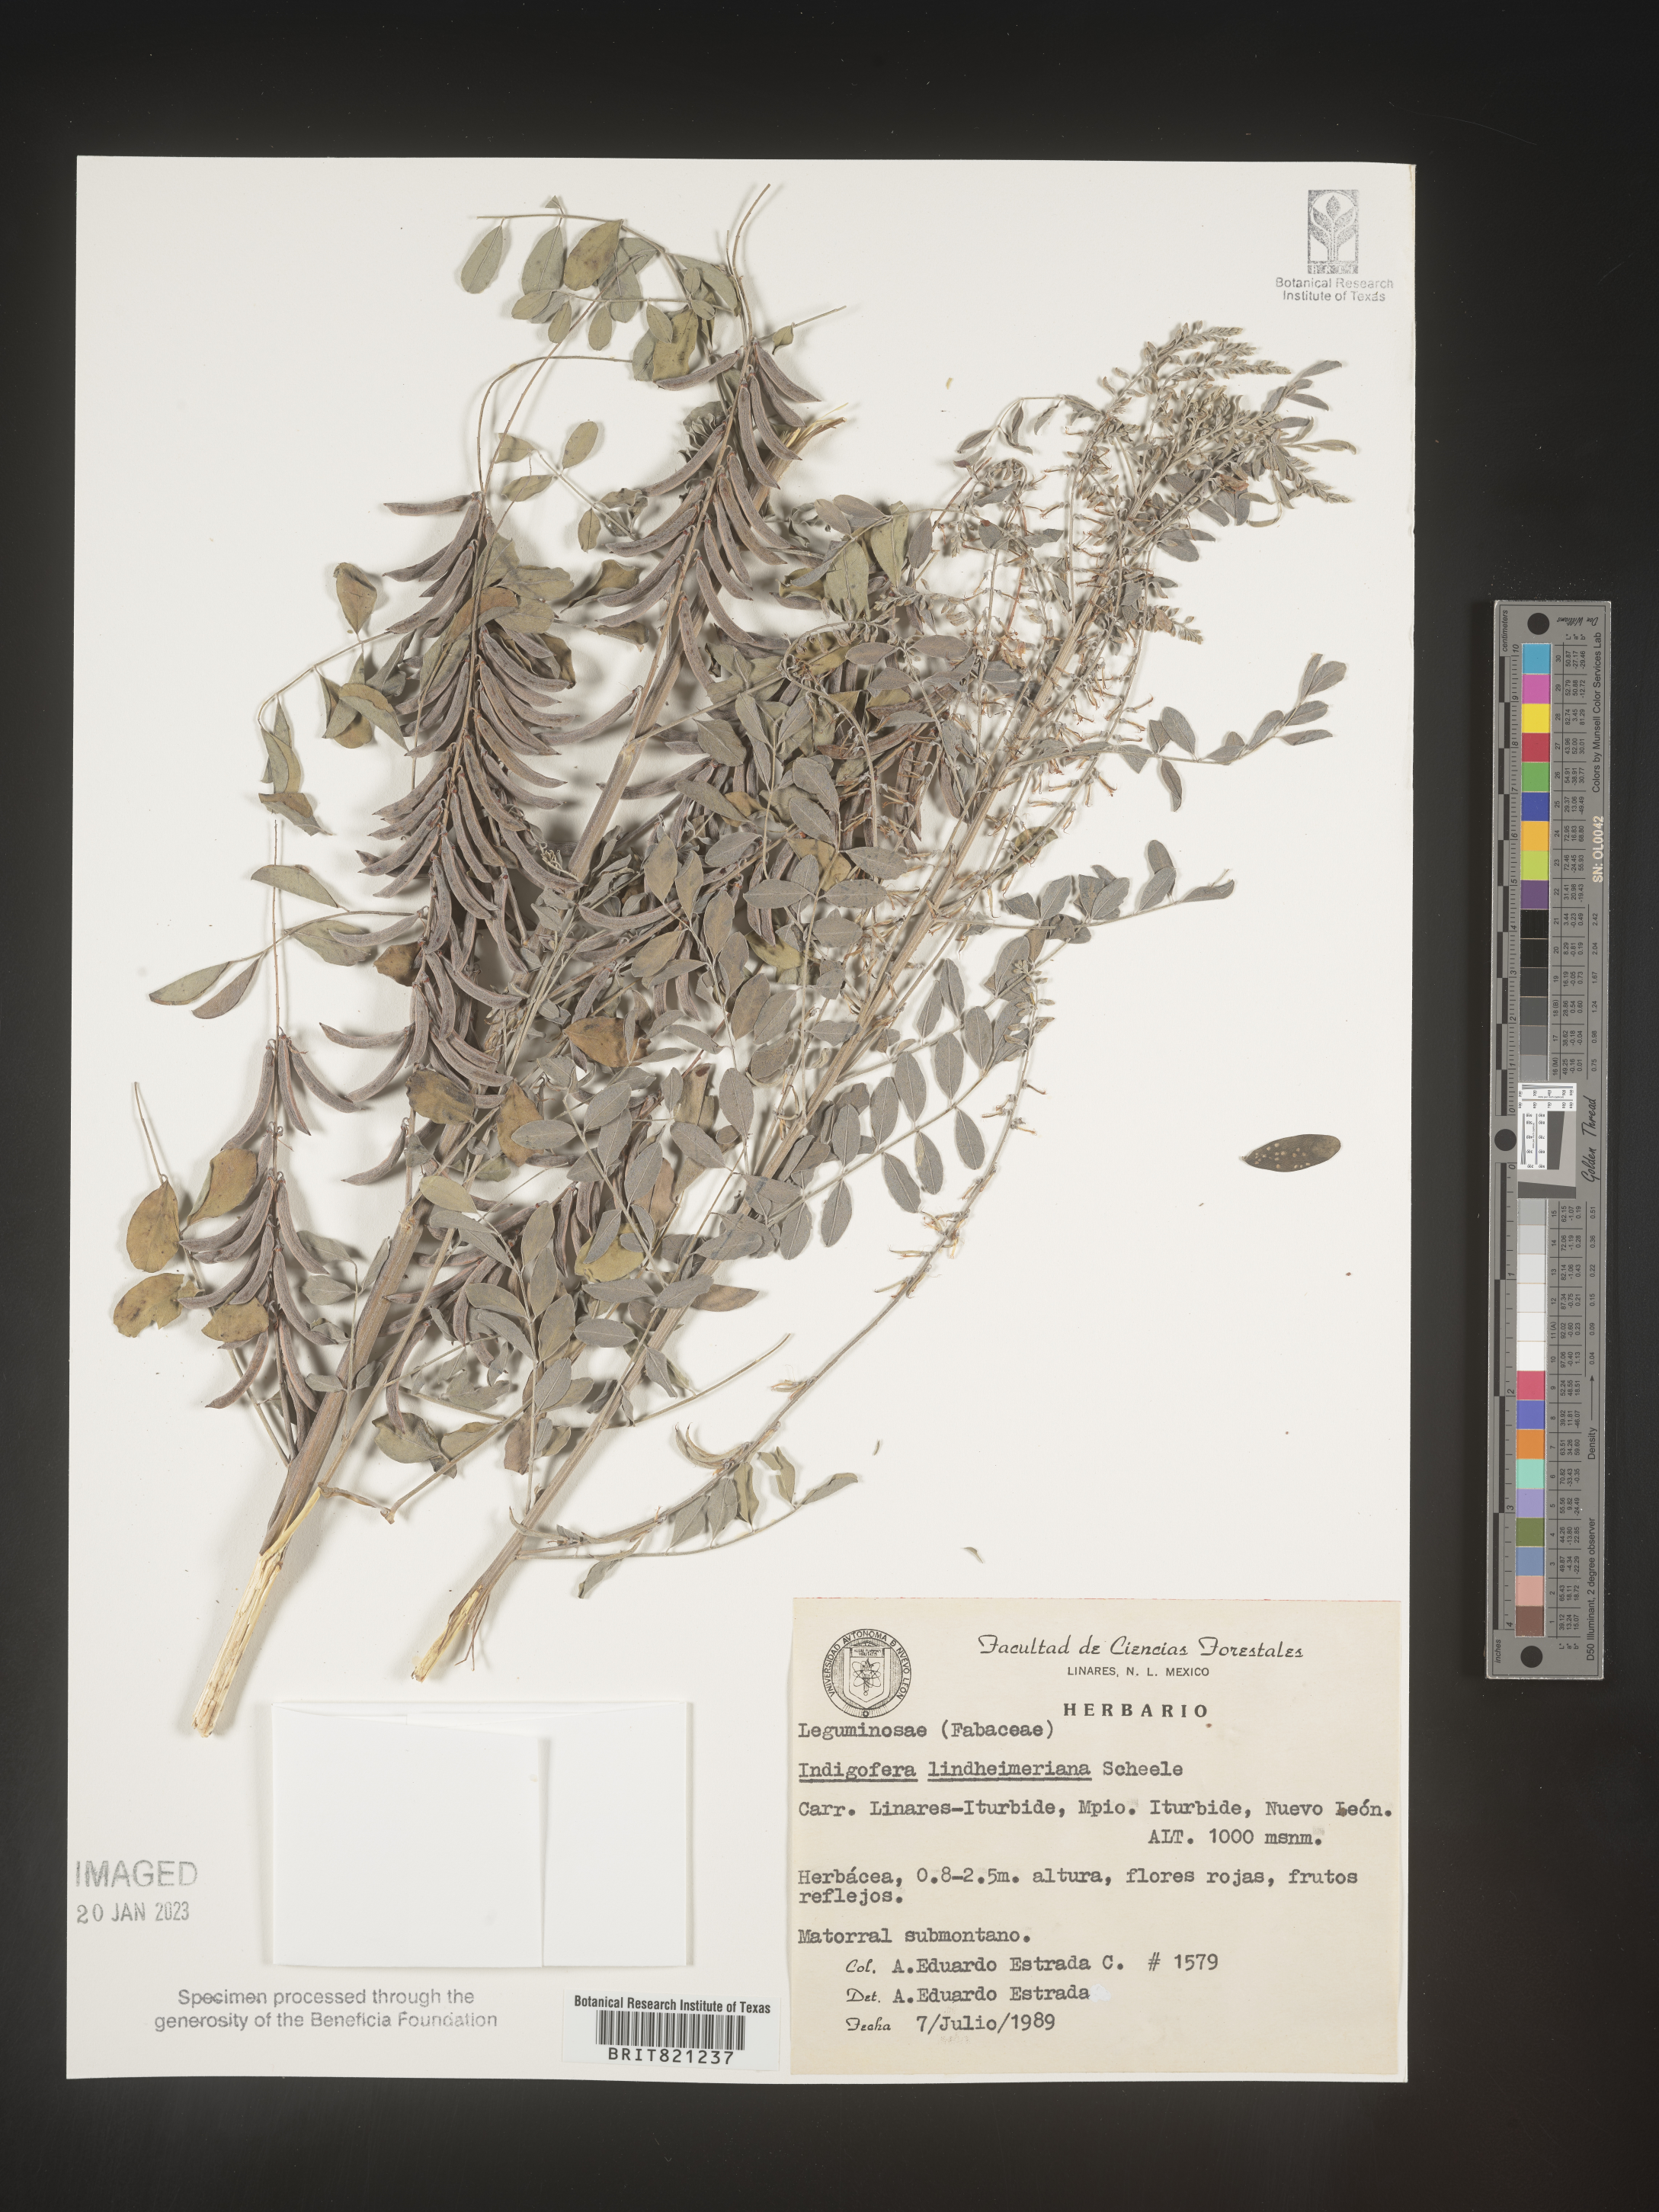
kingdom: Plantae
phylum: Tracheophyta
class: Magnoliopsida
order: Fabales
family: Fabaceae
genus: Indigofera
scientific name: Indigofera
